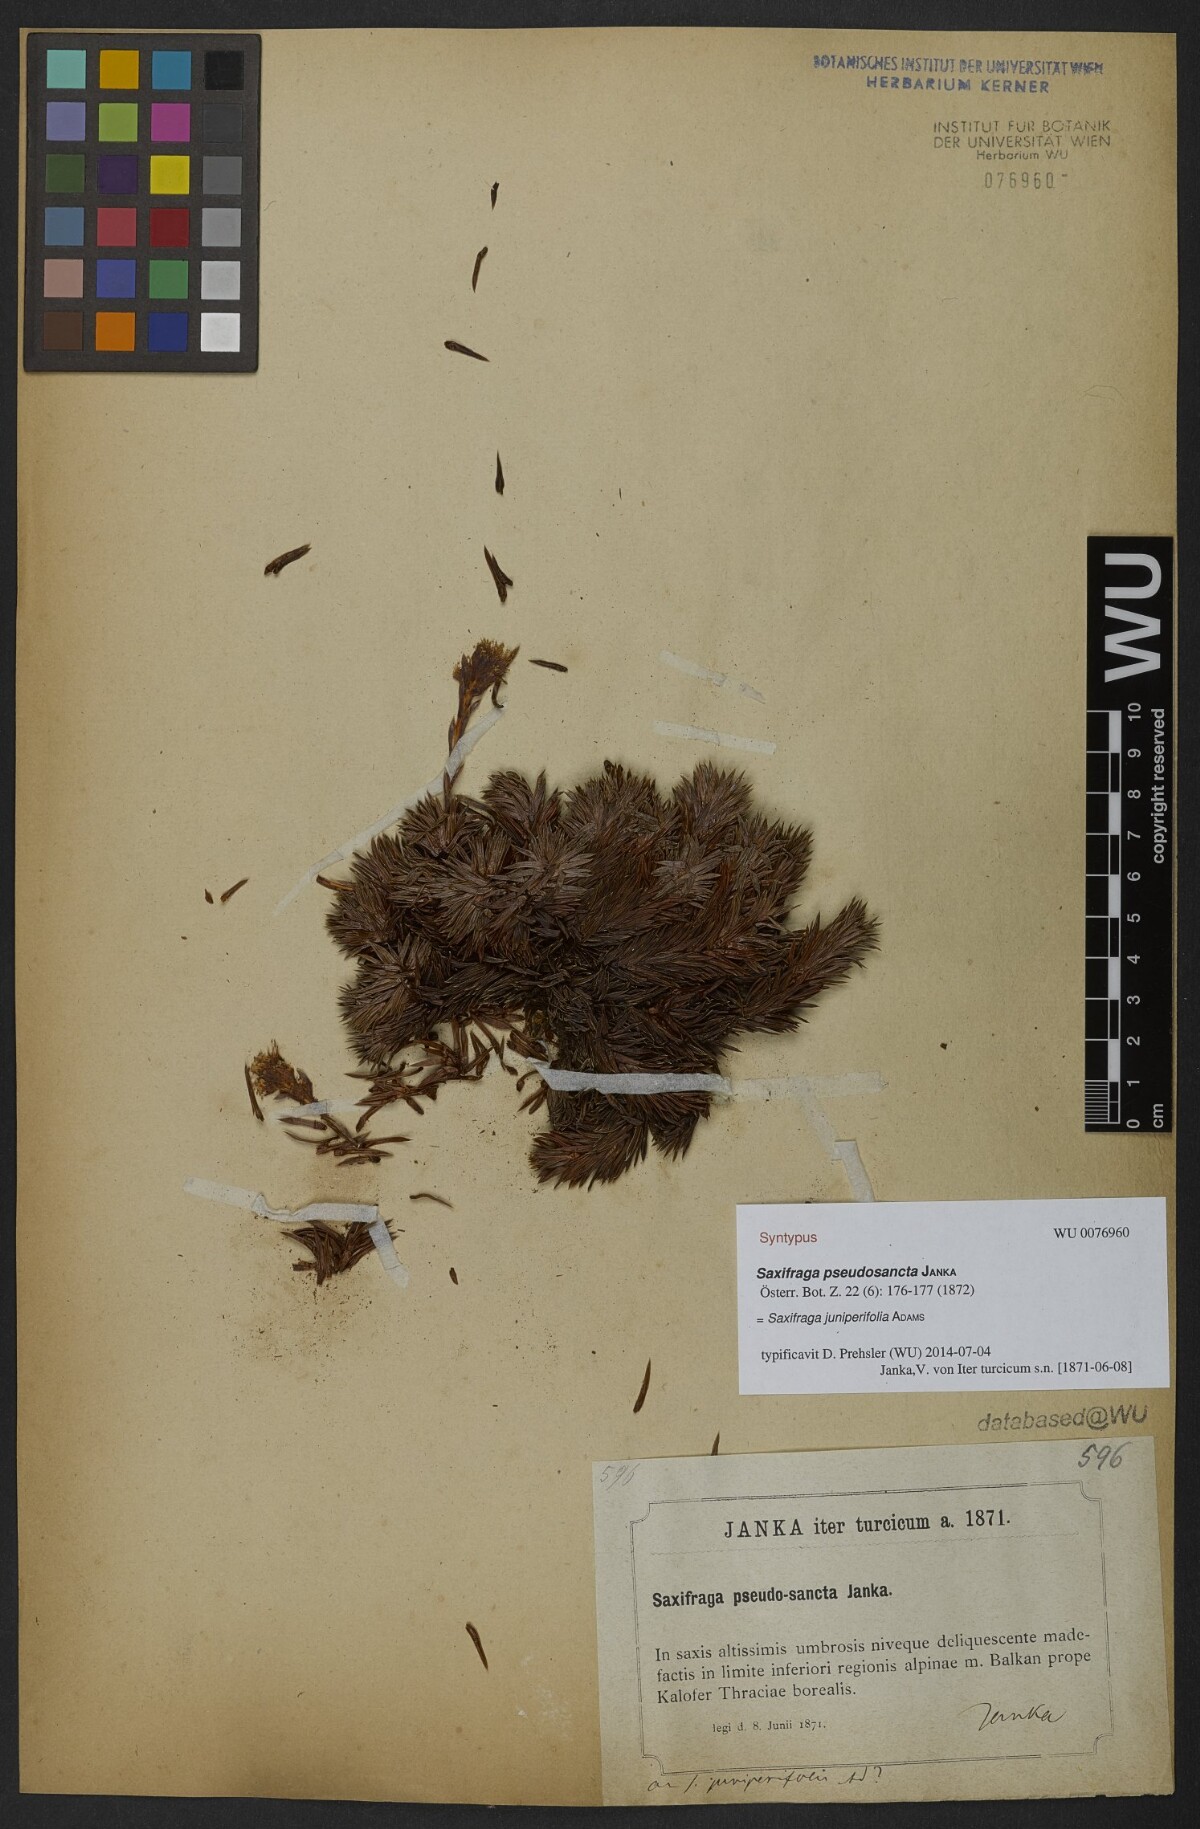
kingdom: Plantae
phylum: Tracheophyta
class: Magnoliopsida
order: Saxifragales
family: Saxifragaceae
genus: Saxifraga
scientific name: Saxifraga juniperifolia
